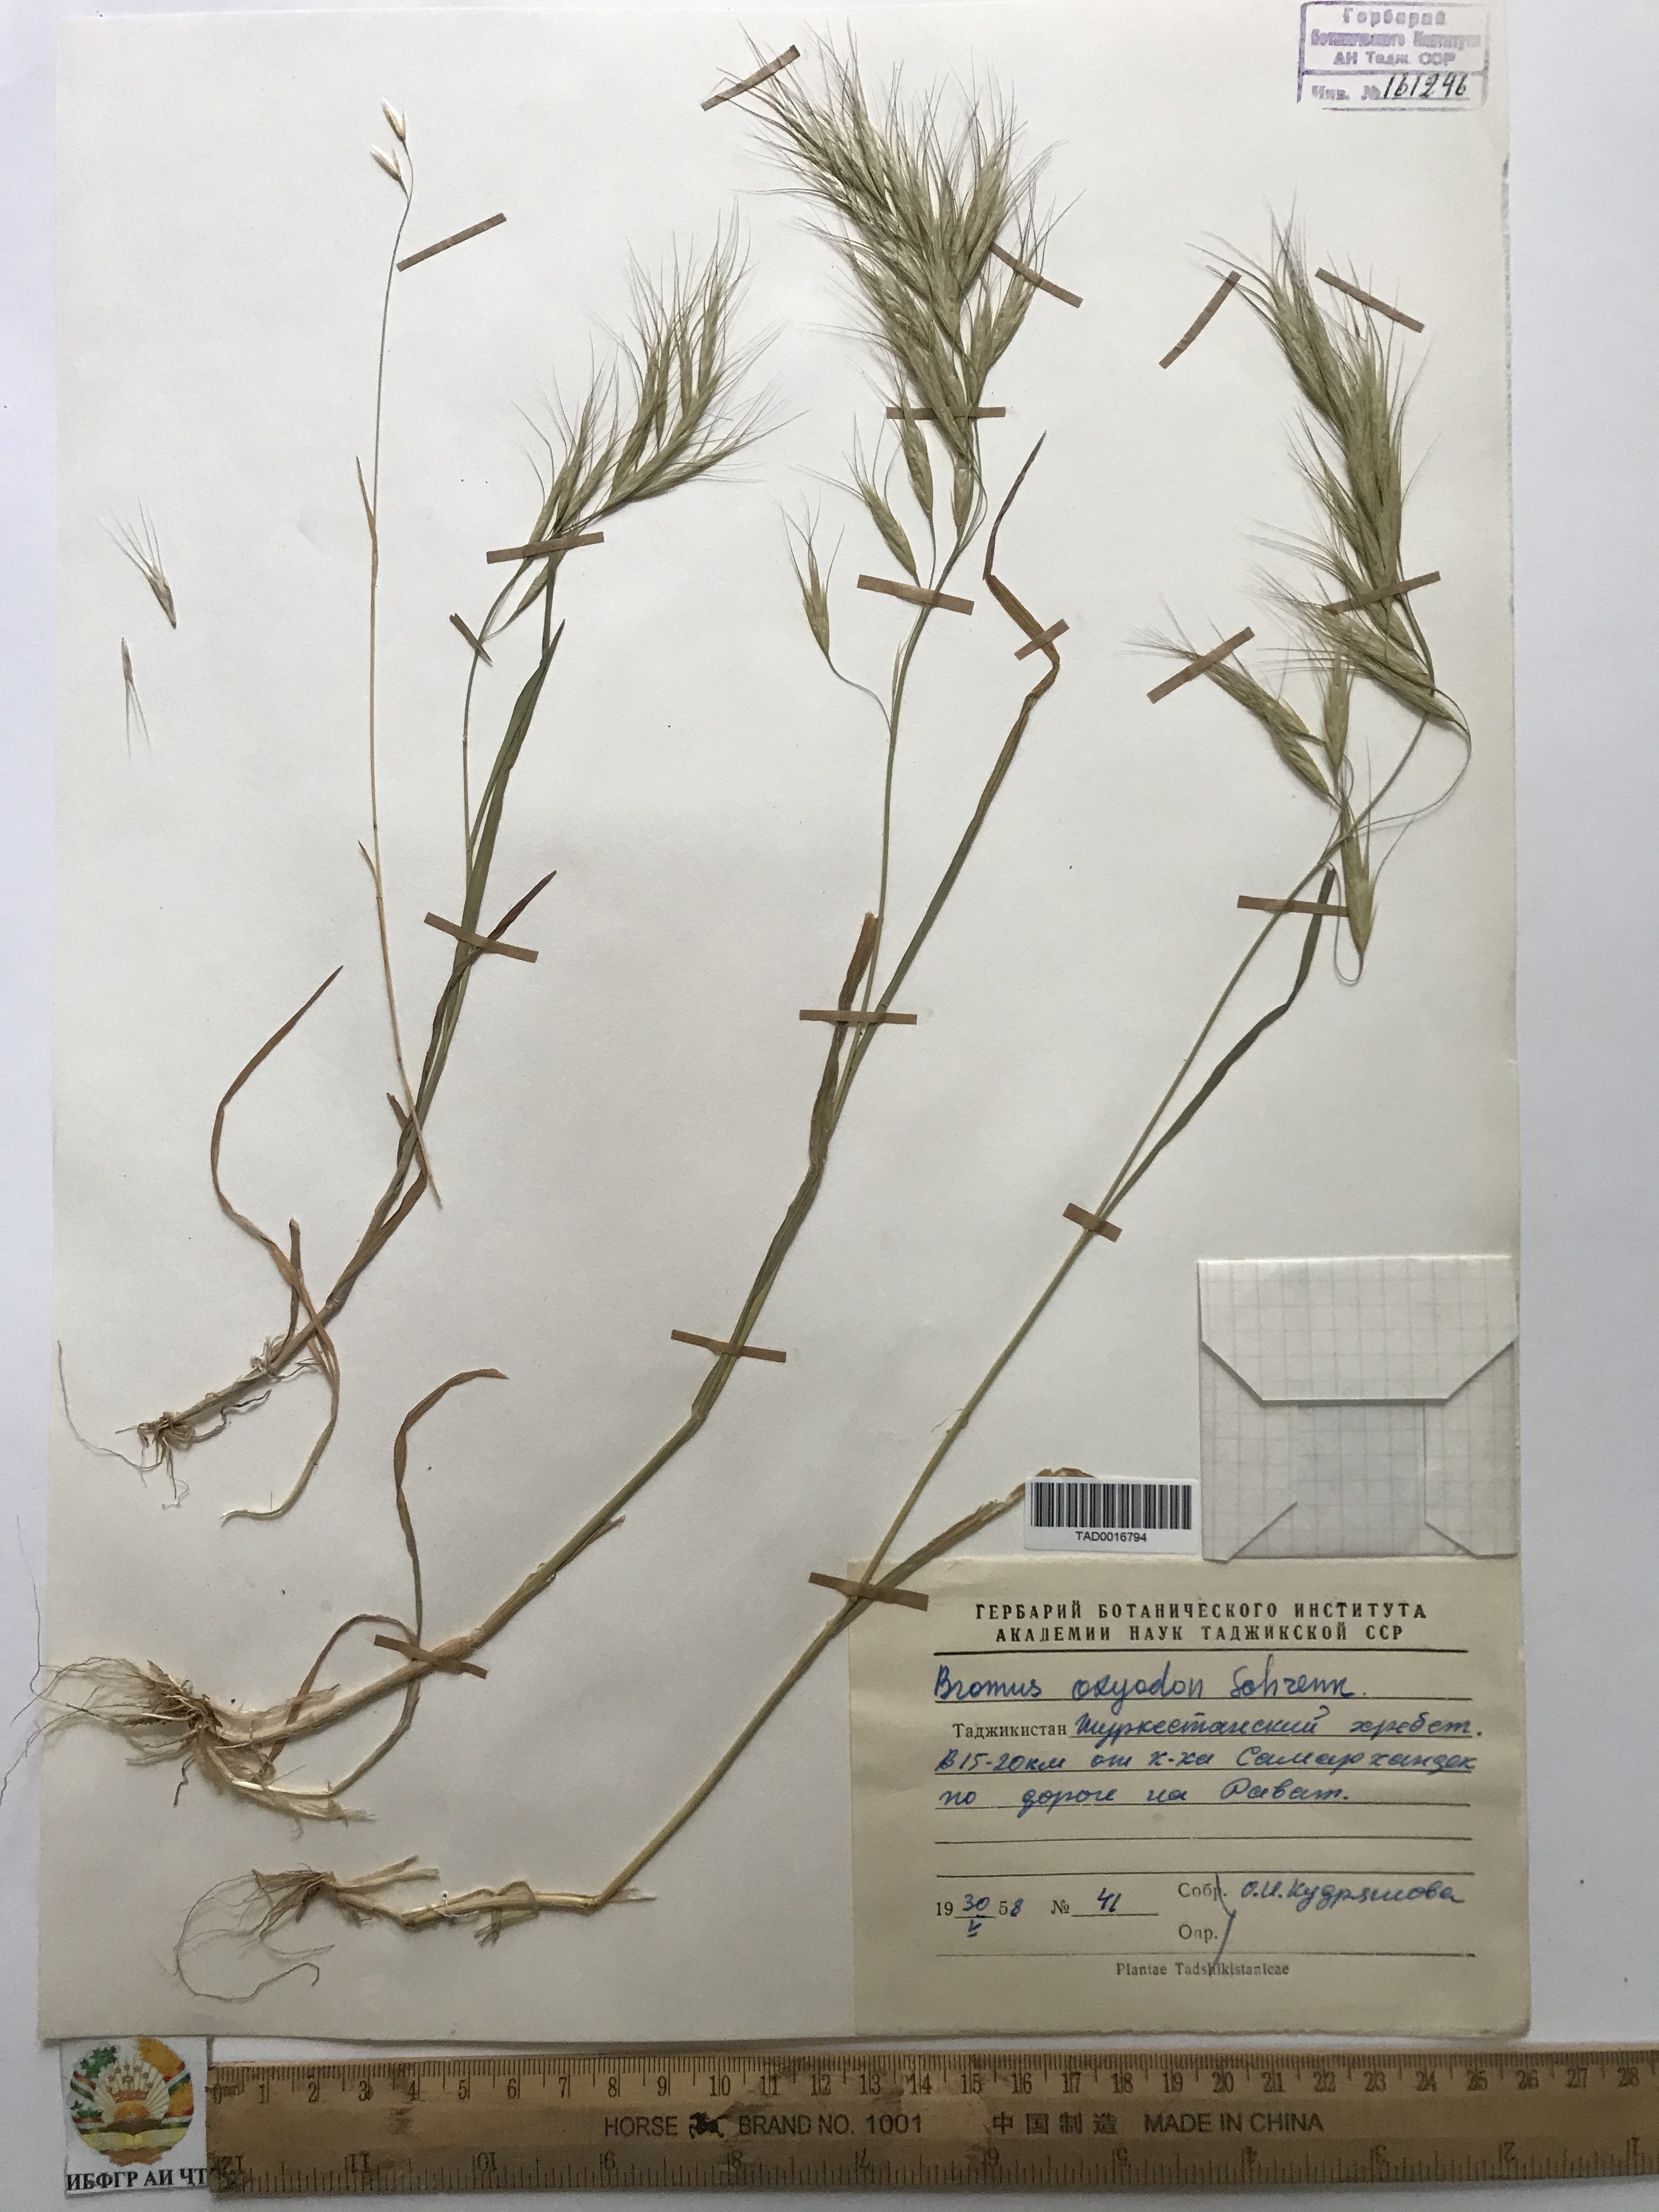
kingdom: Plantae
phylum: Tracheophyta
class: Liliopsida
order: Poales
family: Poaceae
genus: Bromus
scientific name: Bromus oxyodon
